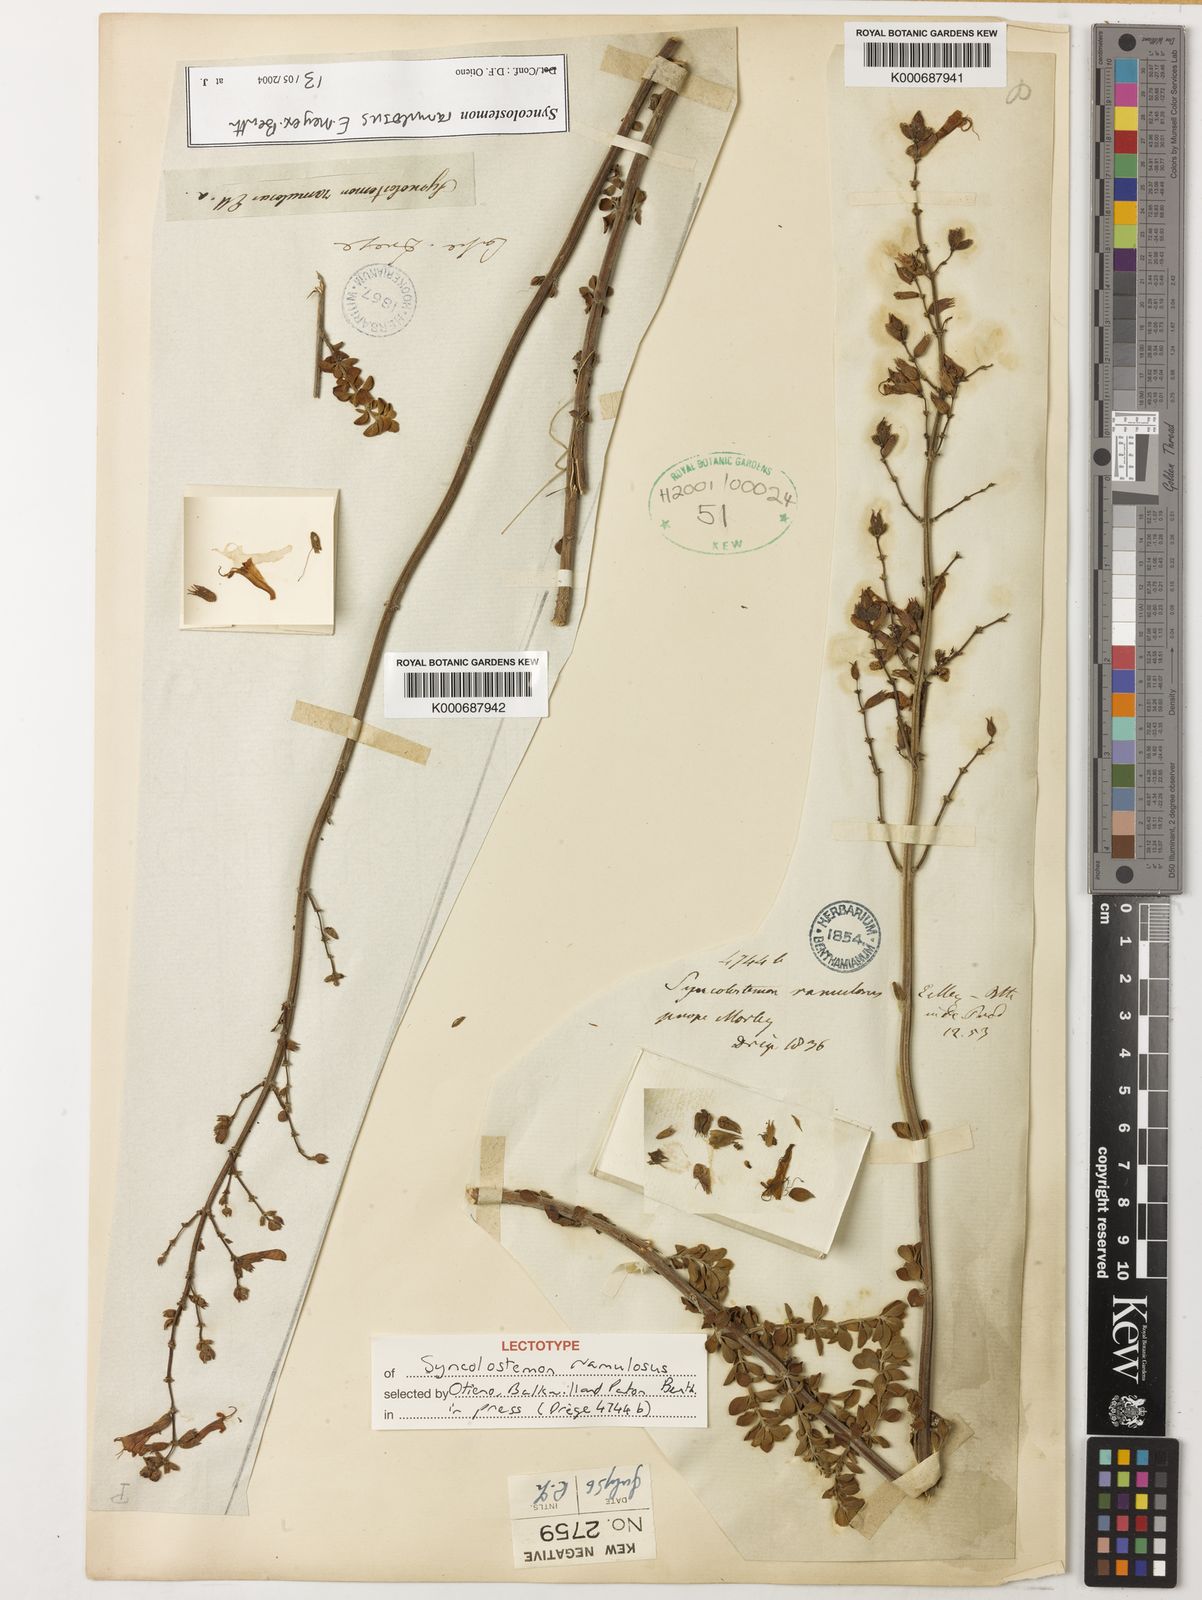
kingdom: Plantae
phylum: Tracheophyta
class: Magnoliopsida
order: Lamiales
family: Lamiaceae
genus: Syncolostemon
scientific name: Syncolostemon ramulosus
